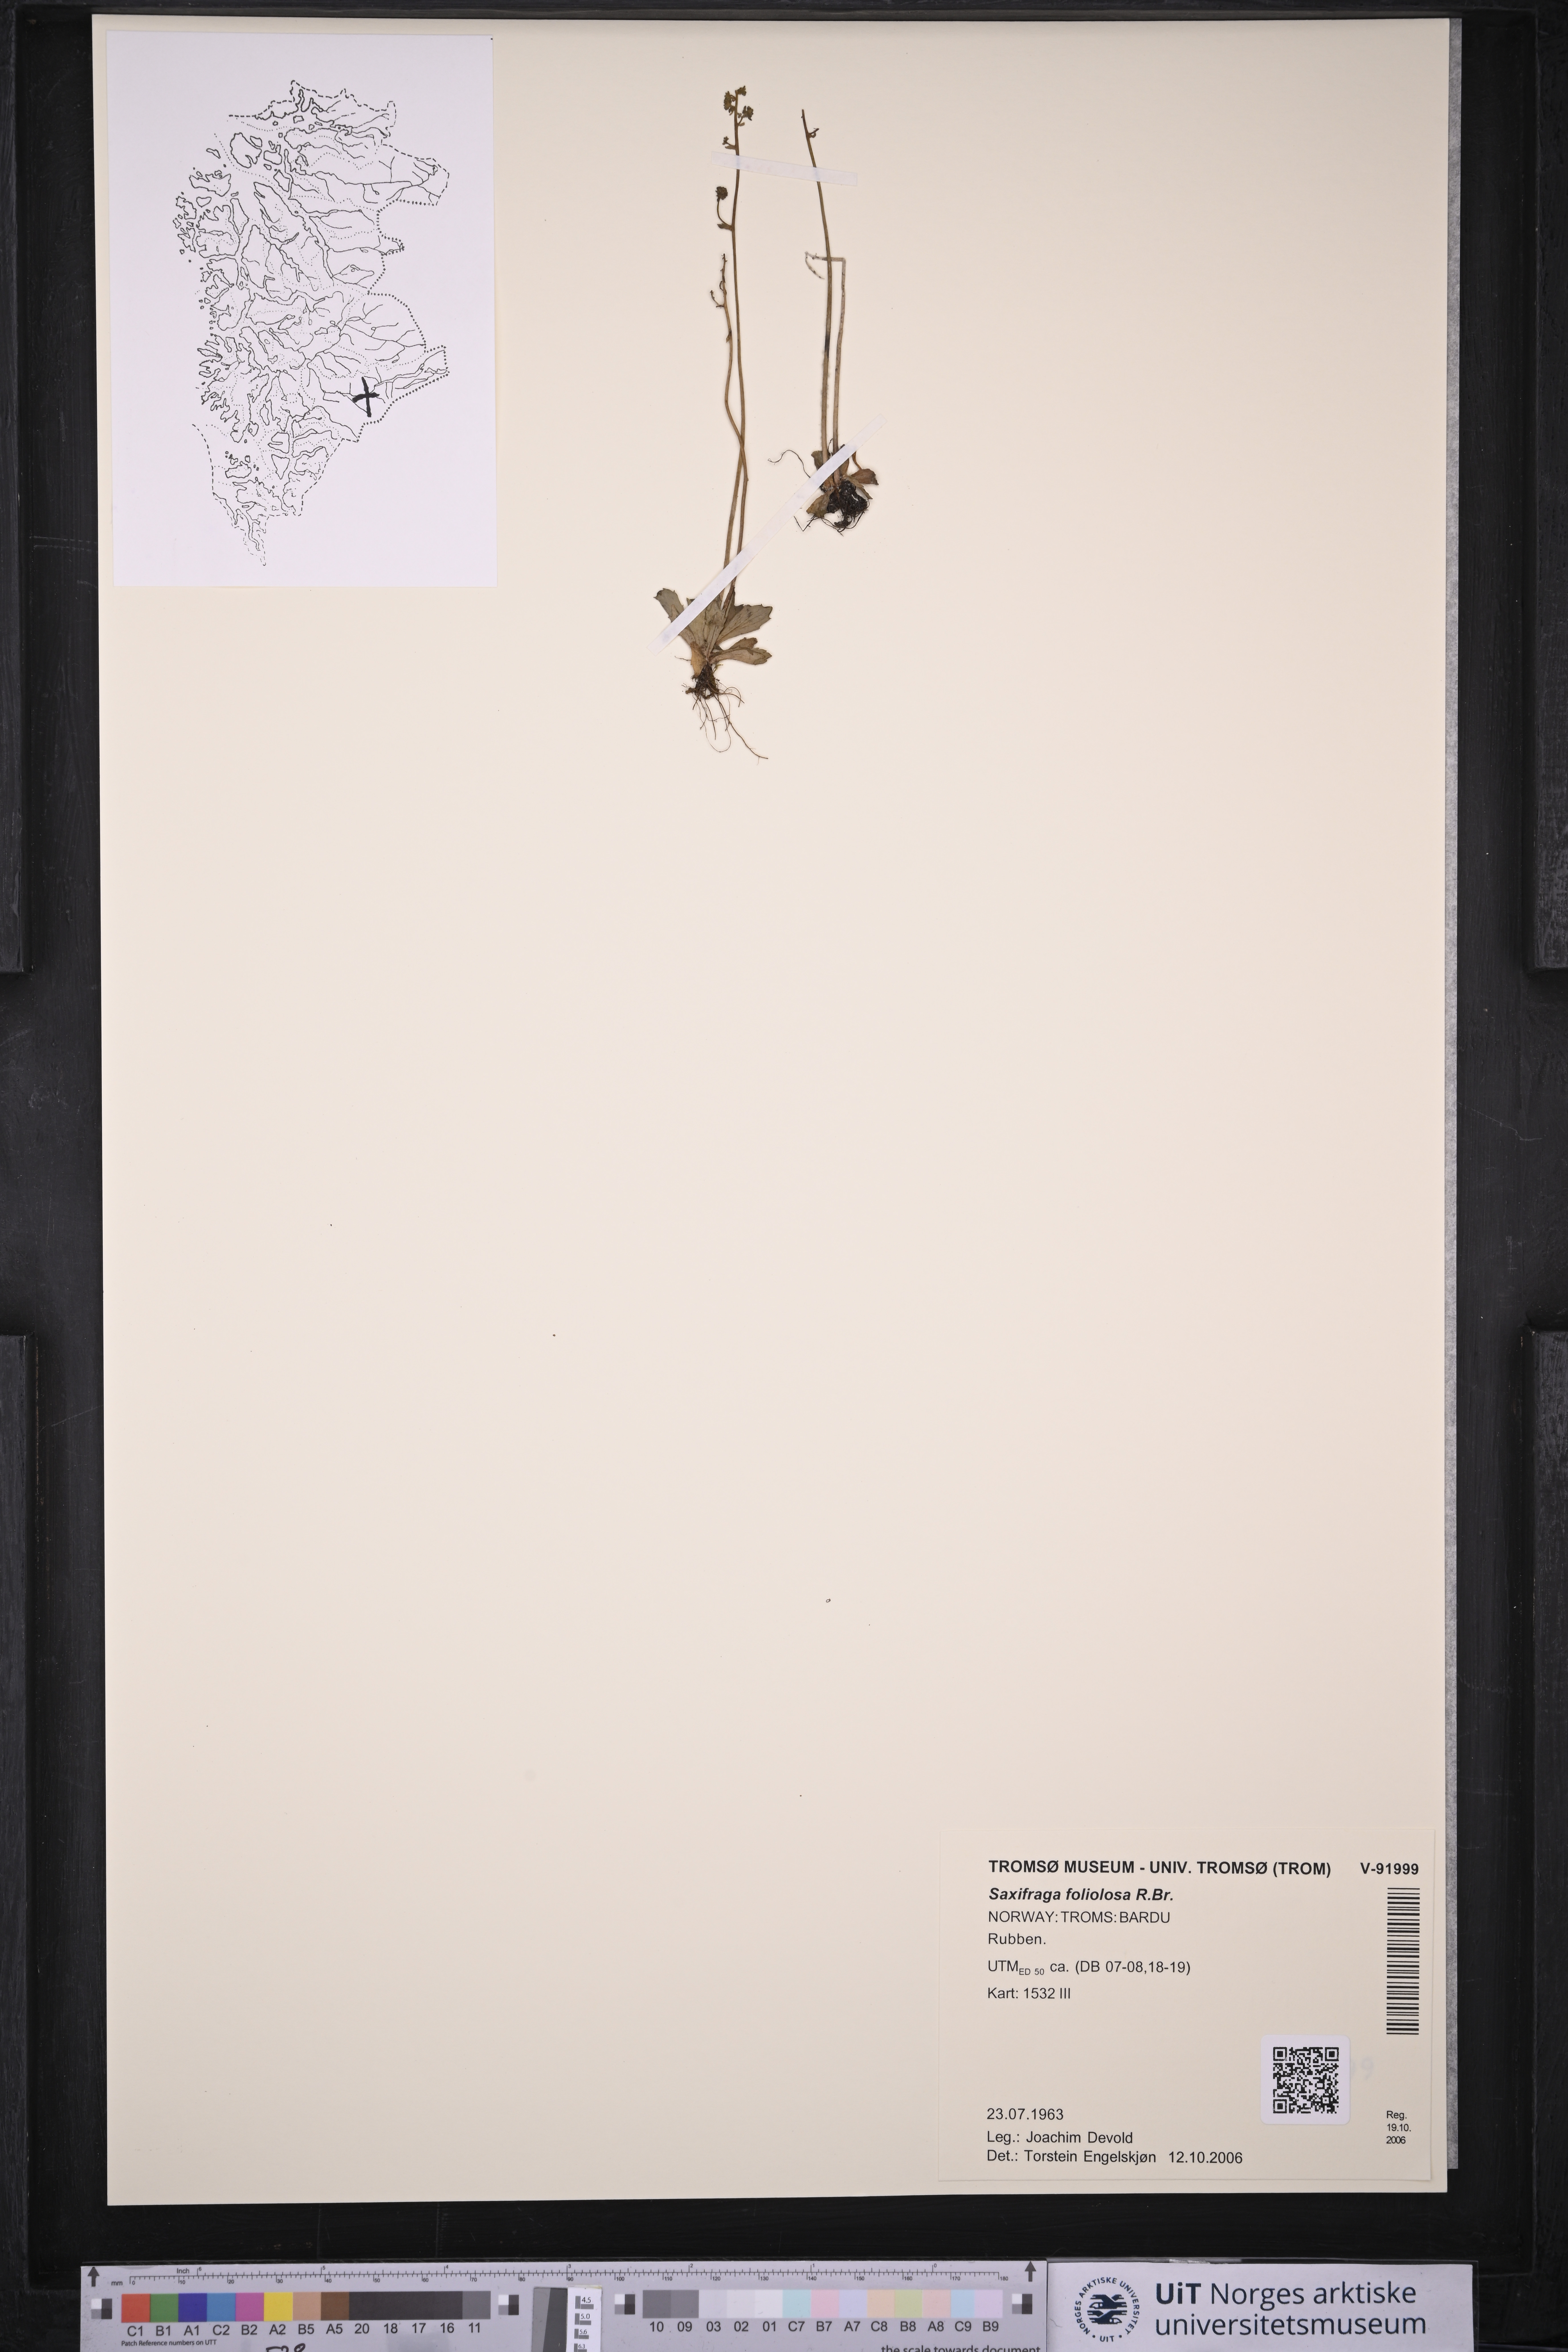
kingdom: Plantae
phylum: Tracheophyta
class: Magnoliopsida
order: Saxifragales
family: Saxifragaceae
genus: Micranthes
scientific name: Micranthes foliolosa
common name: Leafystem saxifrage
